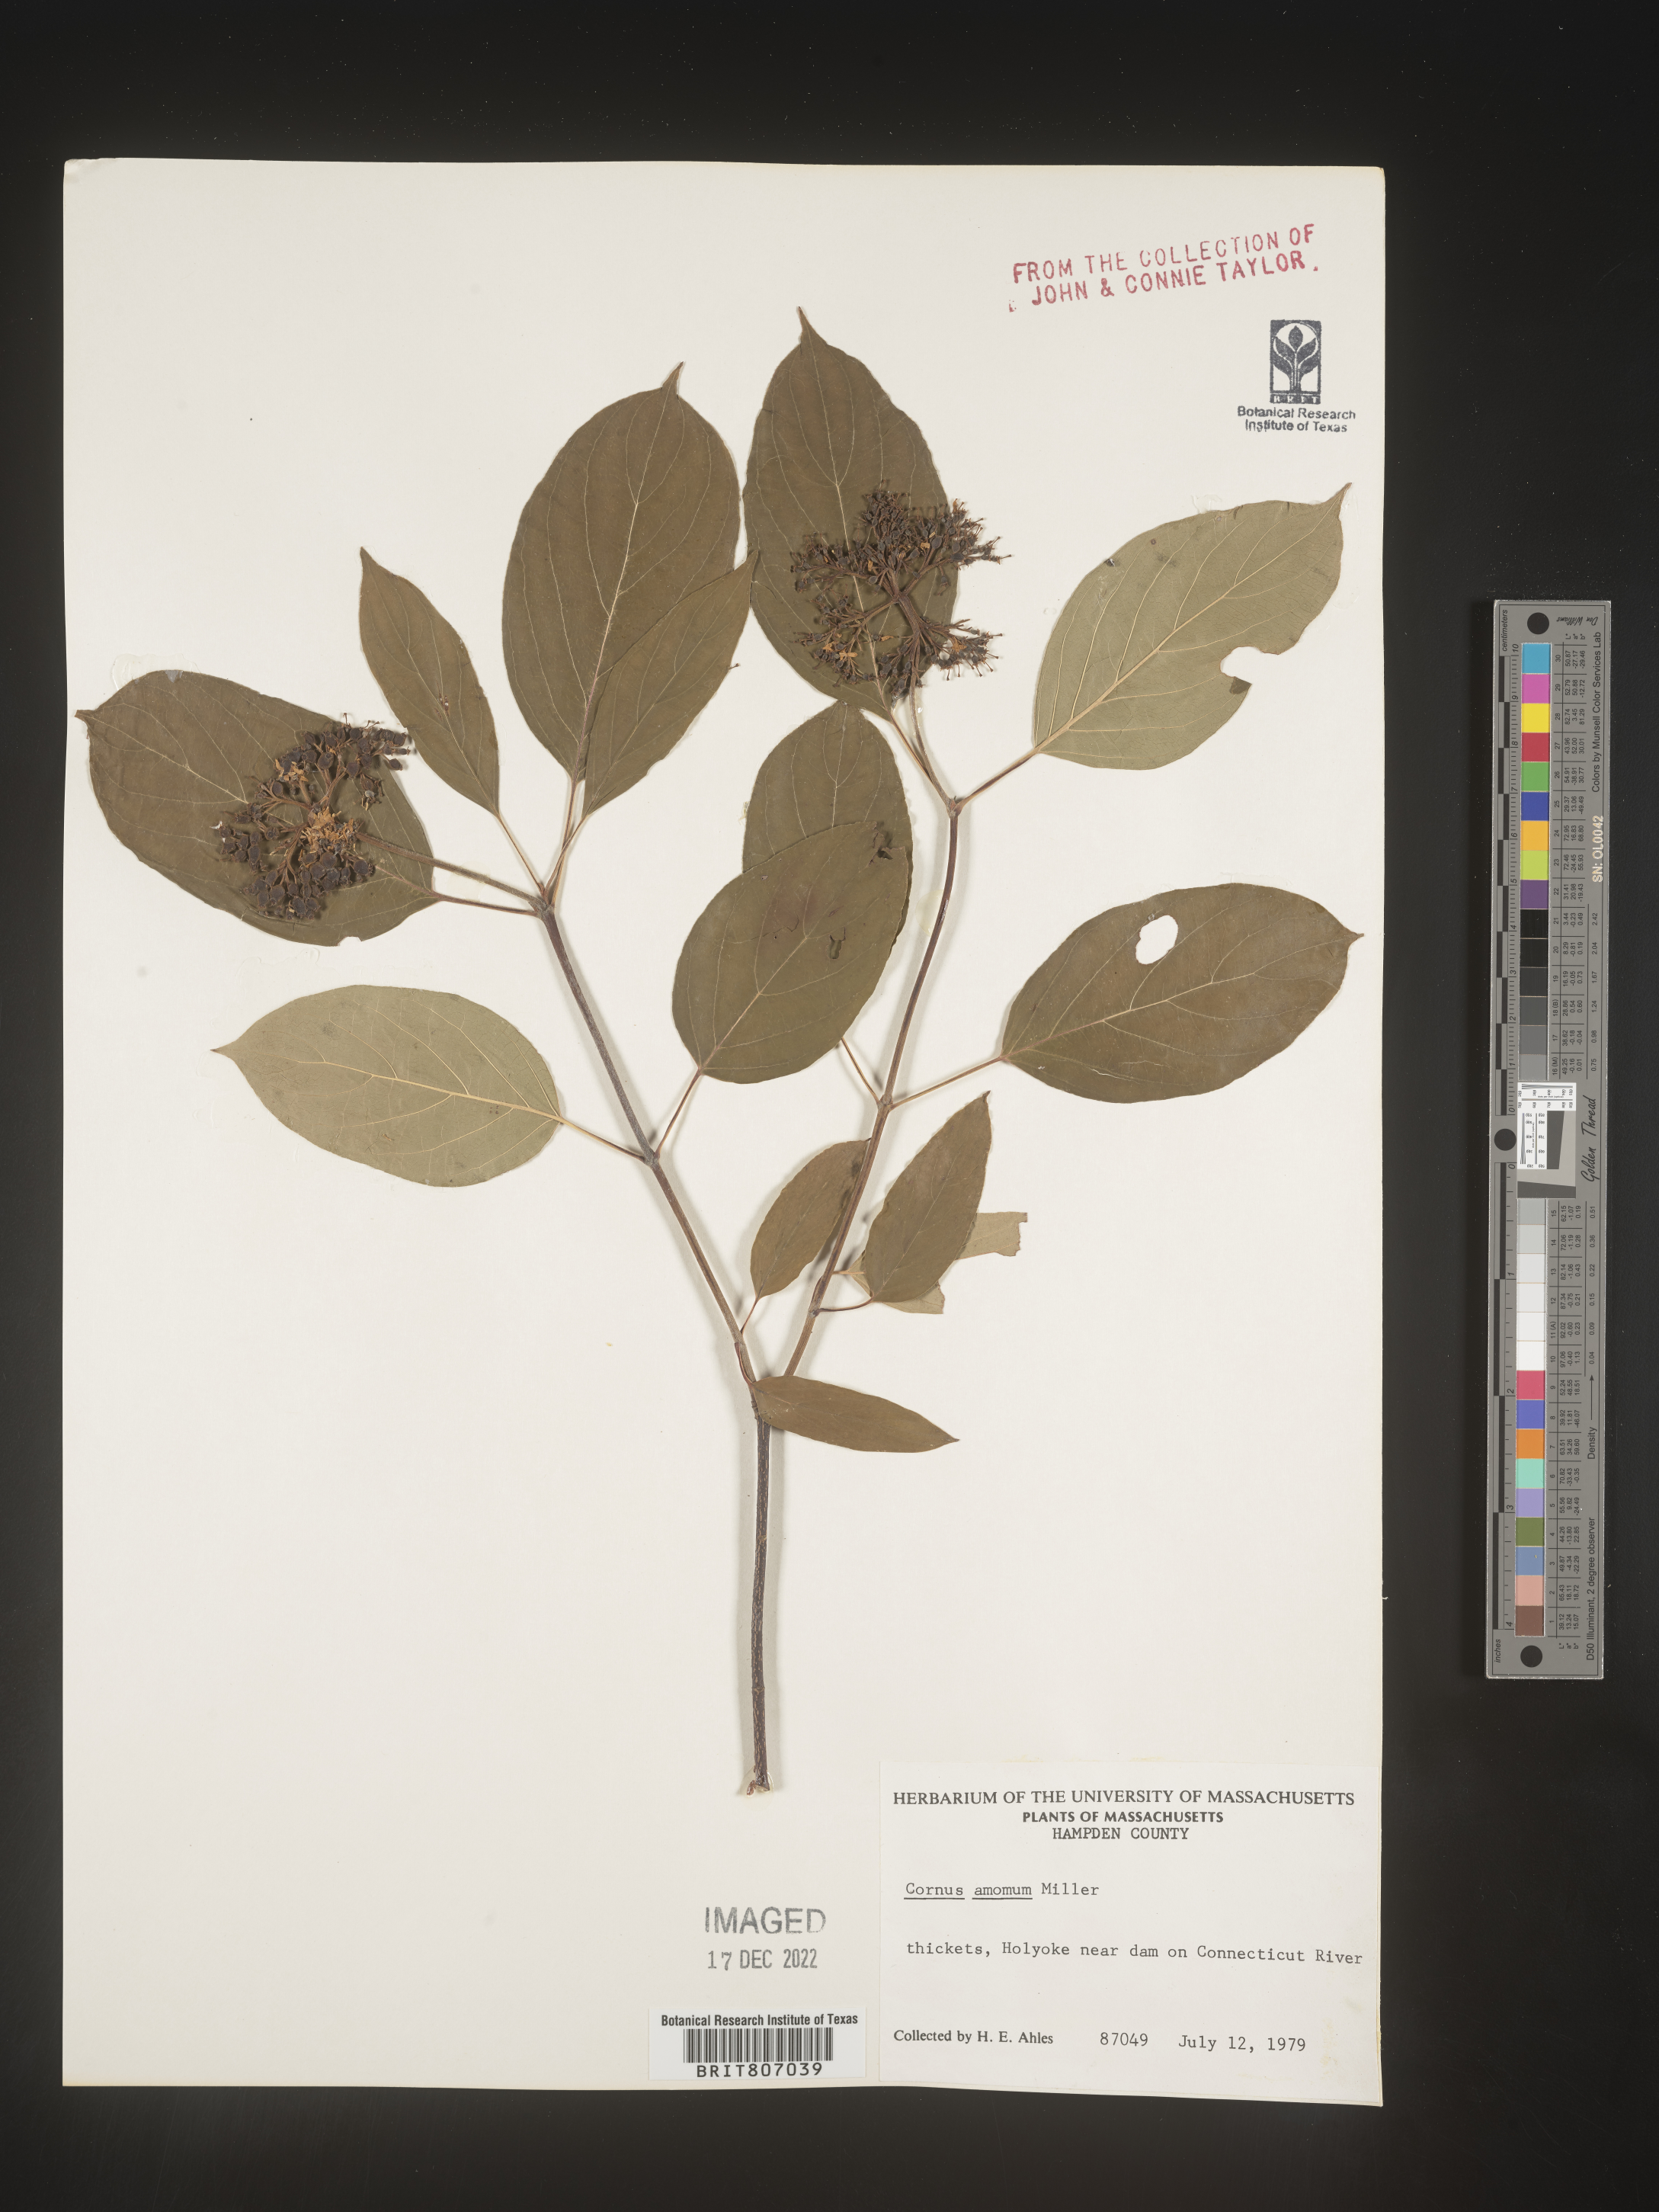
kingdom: Plantae
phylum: Tracheophyta
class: Magnoliopsida
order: Cornales
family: Cornaceae
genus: Cornus
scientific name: Cornus amomum
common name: Silky dogwood
